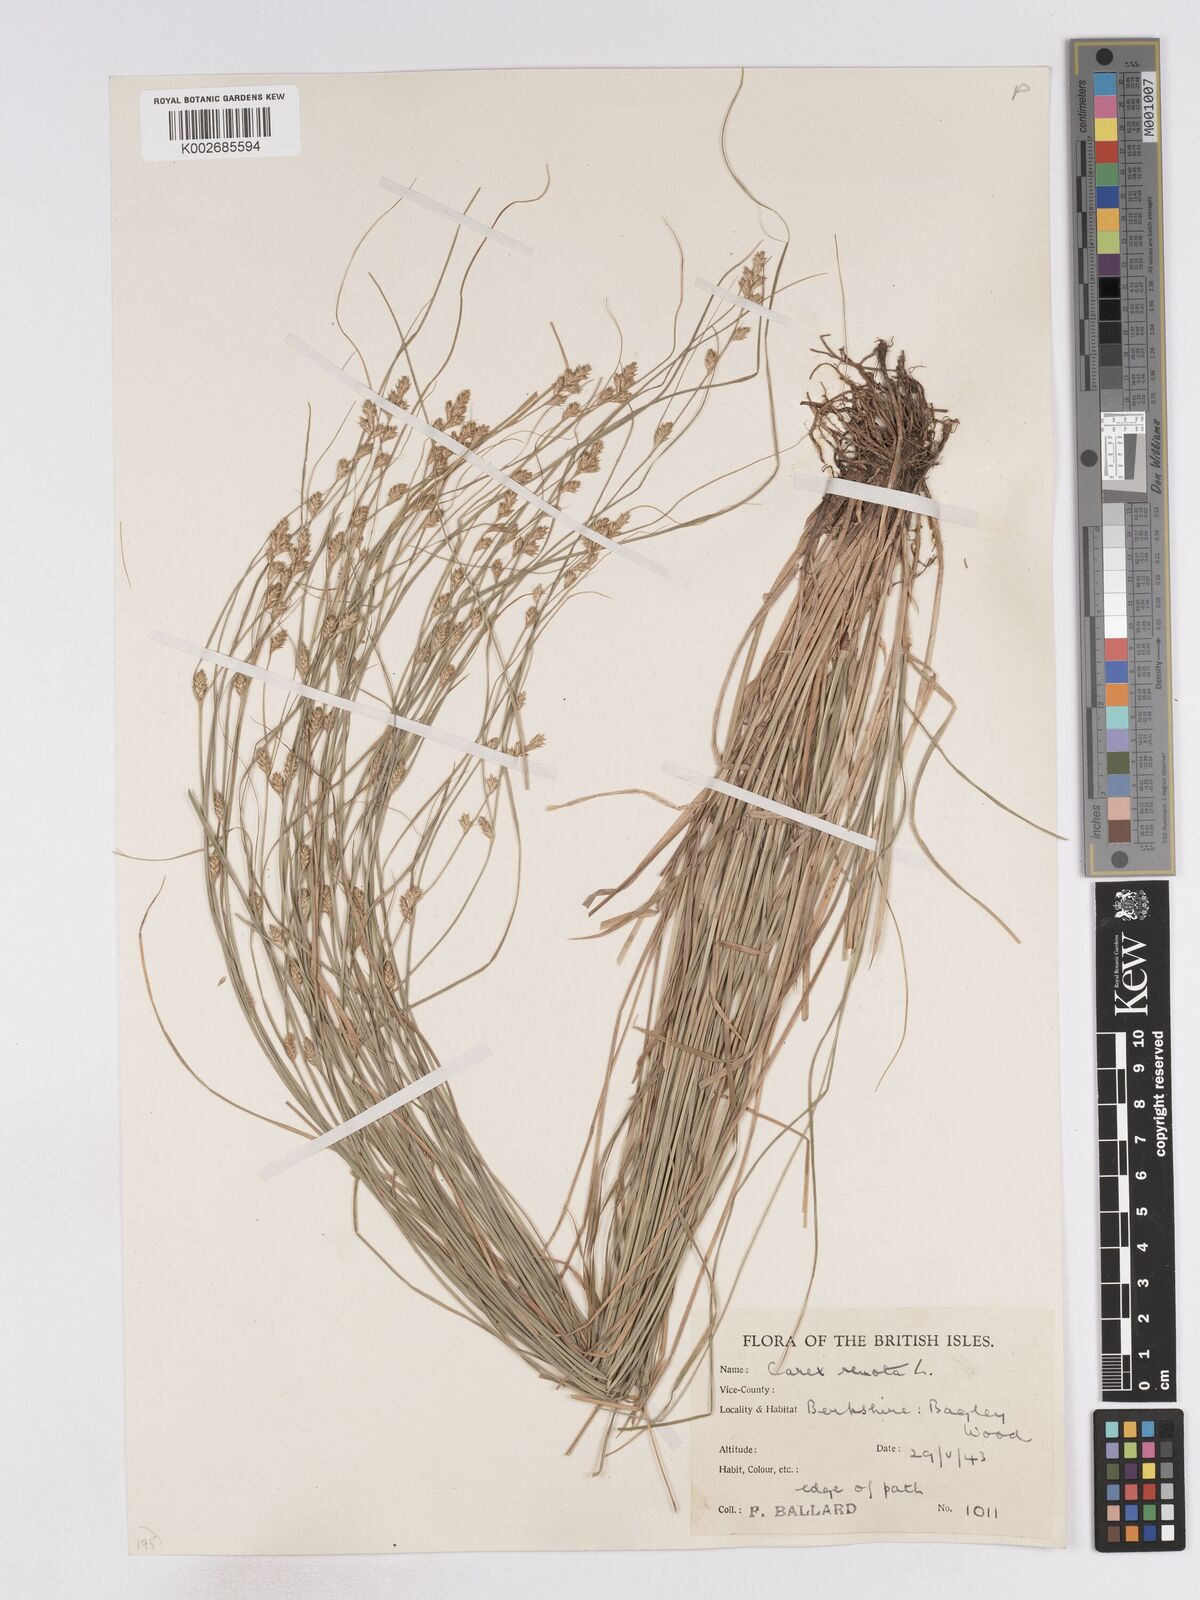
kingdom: Plantae
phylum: Tracheophyta
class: Liliopsida
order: Poales
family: Cyperaceae
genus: Carex
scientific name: Carex remota
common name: Remote sedge
